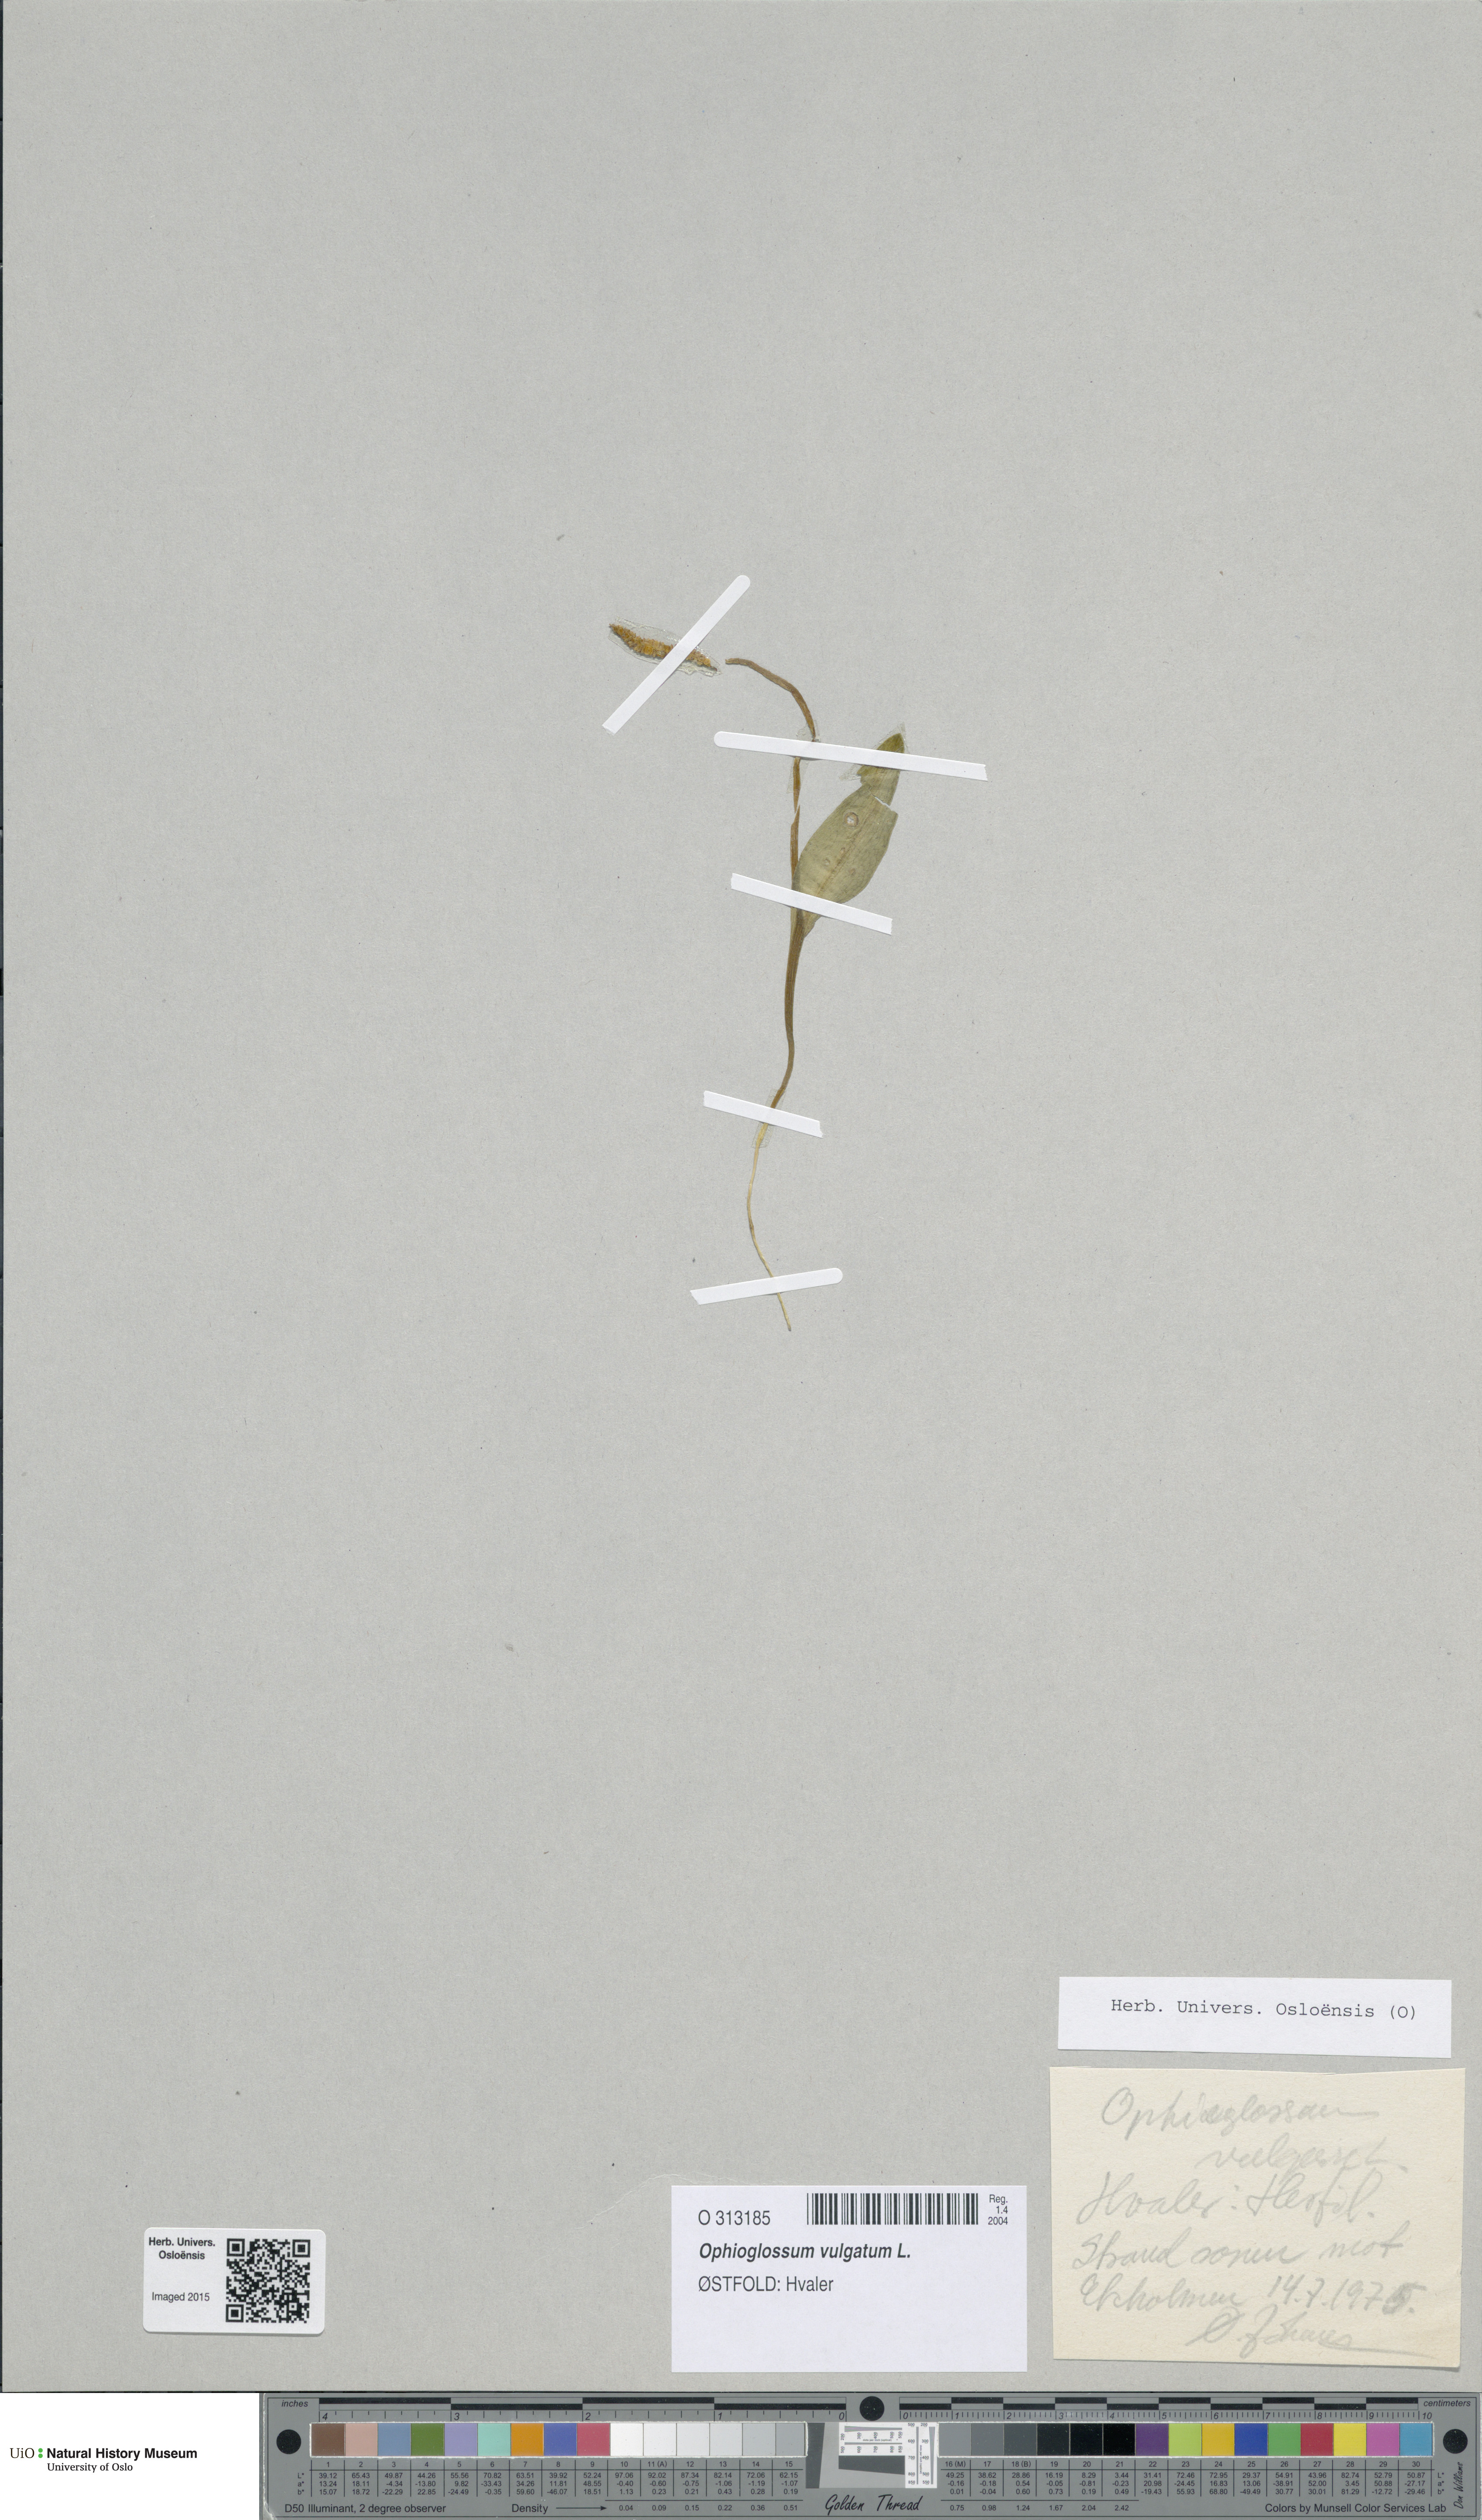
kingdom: Plantae
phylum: Tracheophyta
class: Polypodiopsida
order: Ophioglossales
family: Ophioglossaceae
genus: Ophioglossum
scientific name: Ophioglossum vulgatum
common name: Adder's-tongue
